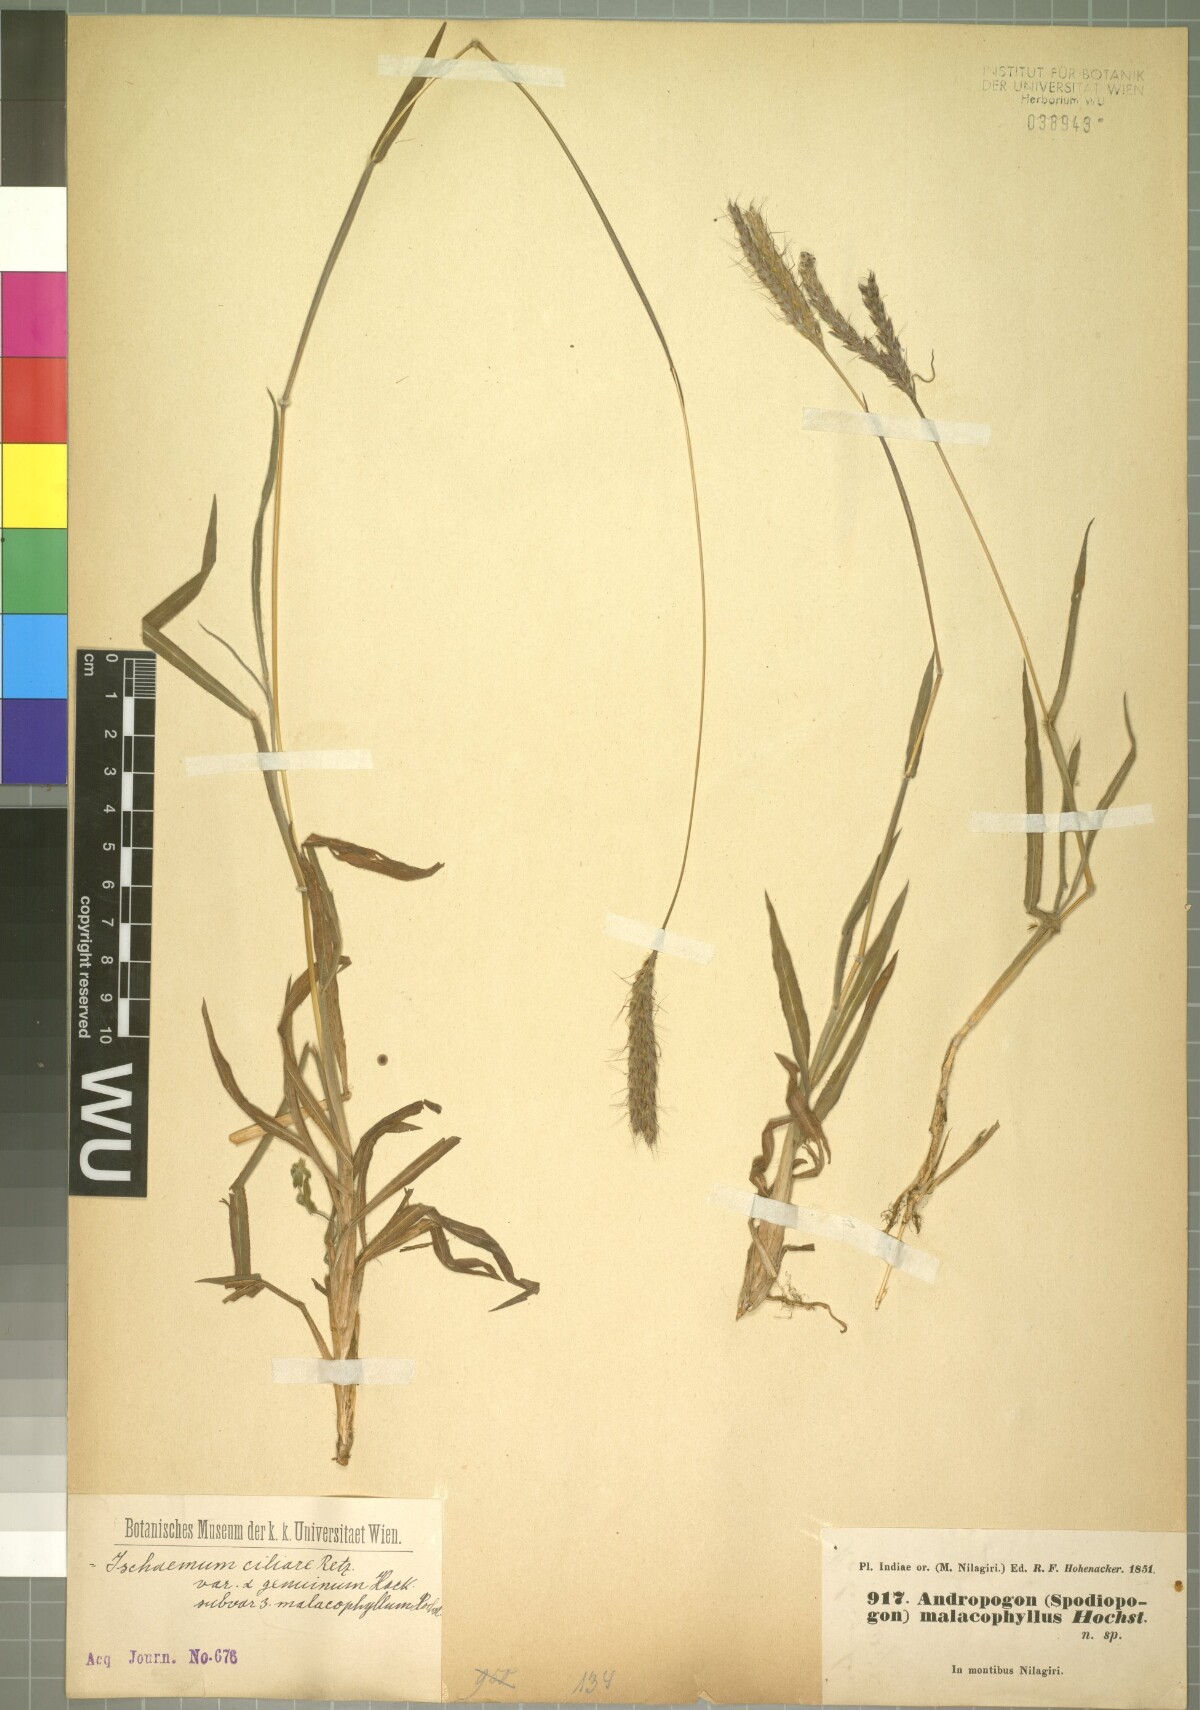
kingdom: Plantae
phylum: Tracheophyta
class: Liliopsida
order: Poales
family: Poaceae
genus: Ischaemum
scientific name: Ischaemum ciliare
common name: Grass
